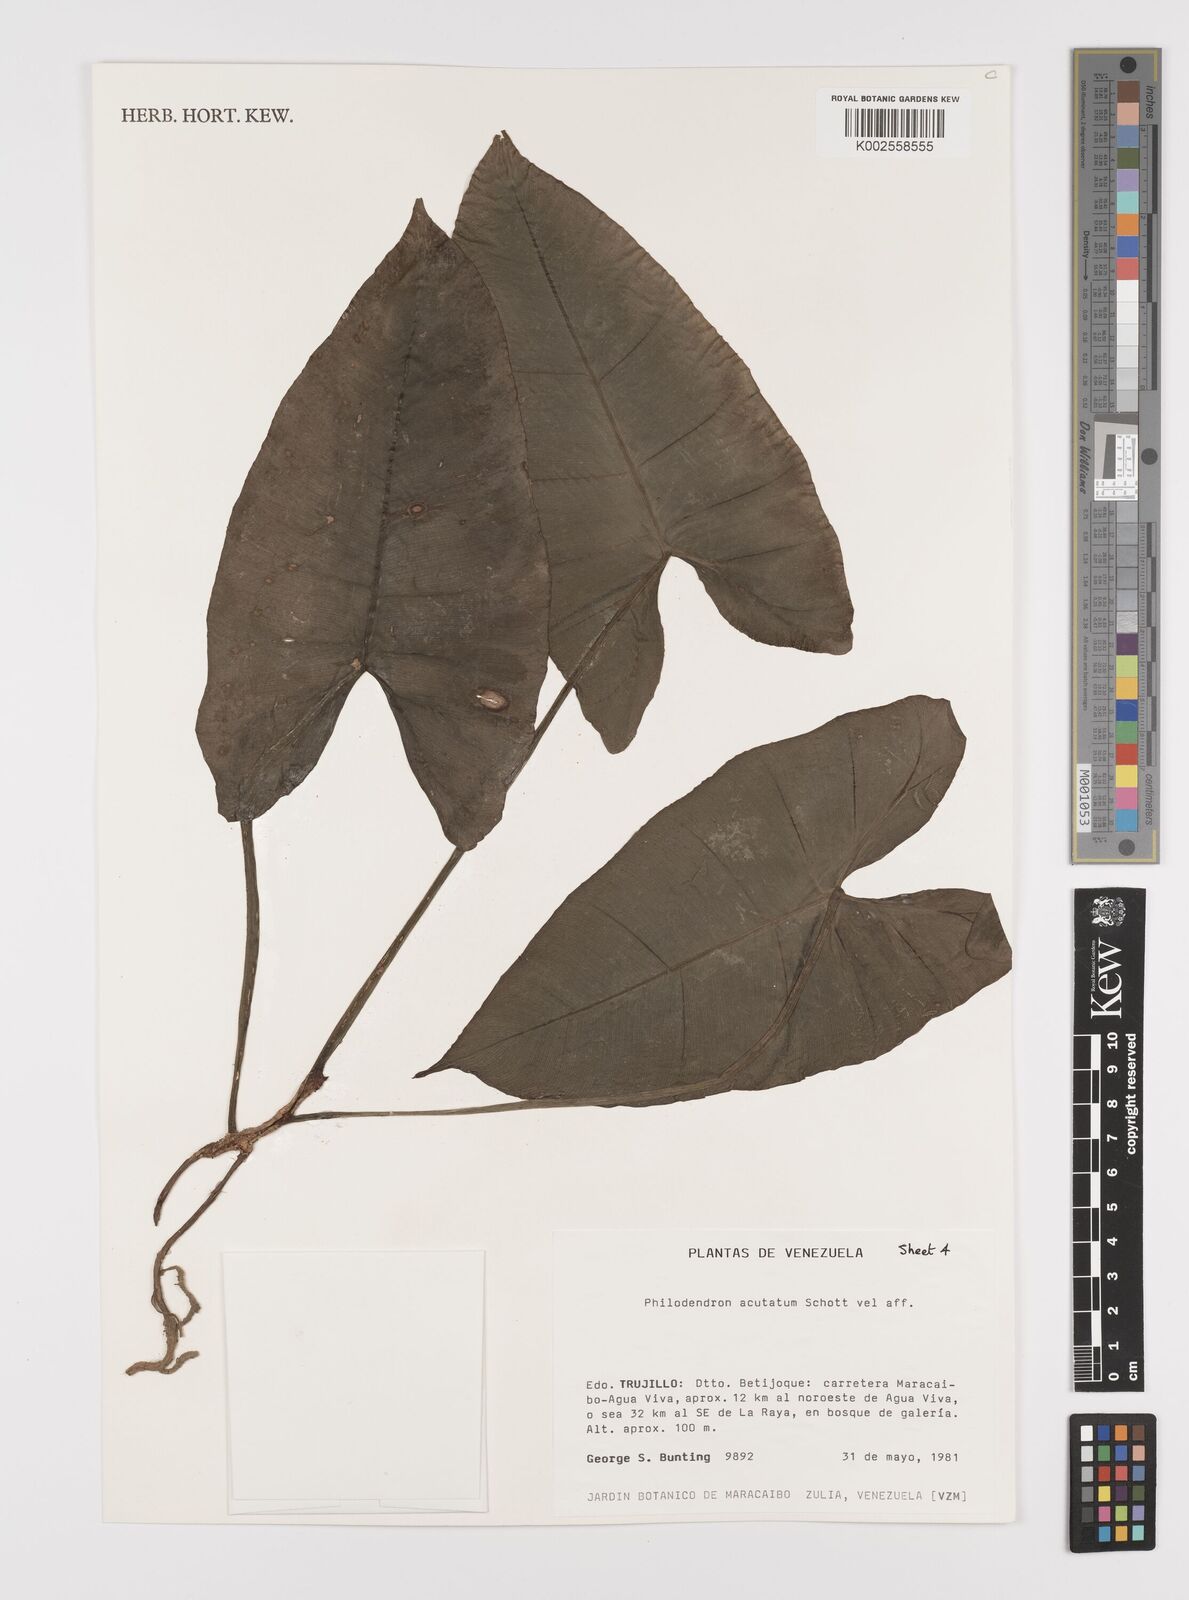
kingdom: Plantae
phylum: Tracheophyta
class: Liliopsida
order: Alismatales
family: Araceae
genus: Philodendron
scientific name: Philodendron quinquenervium
